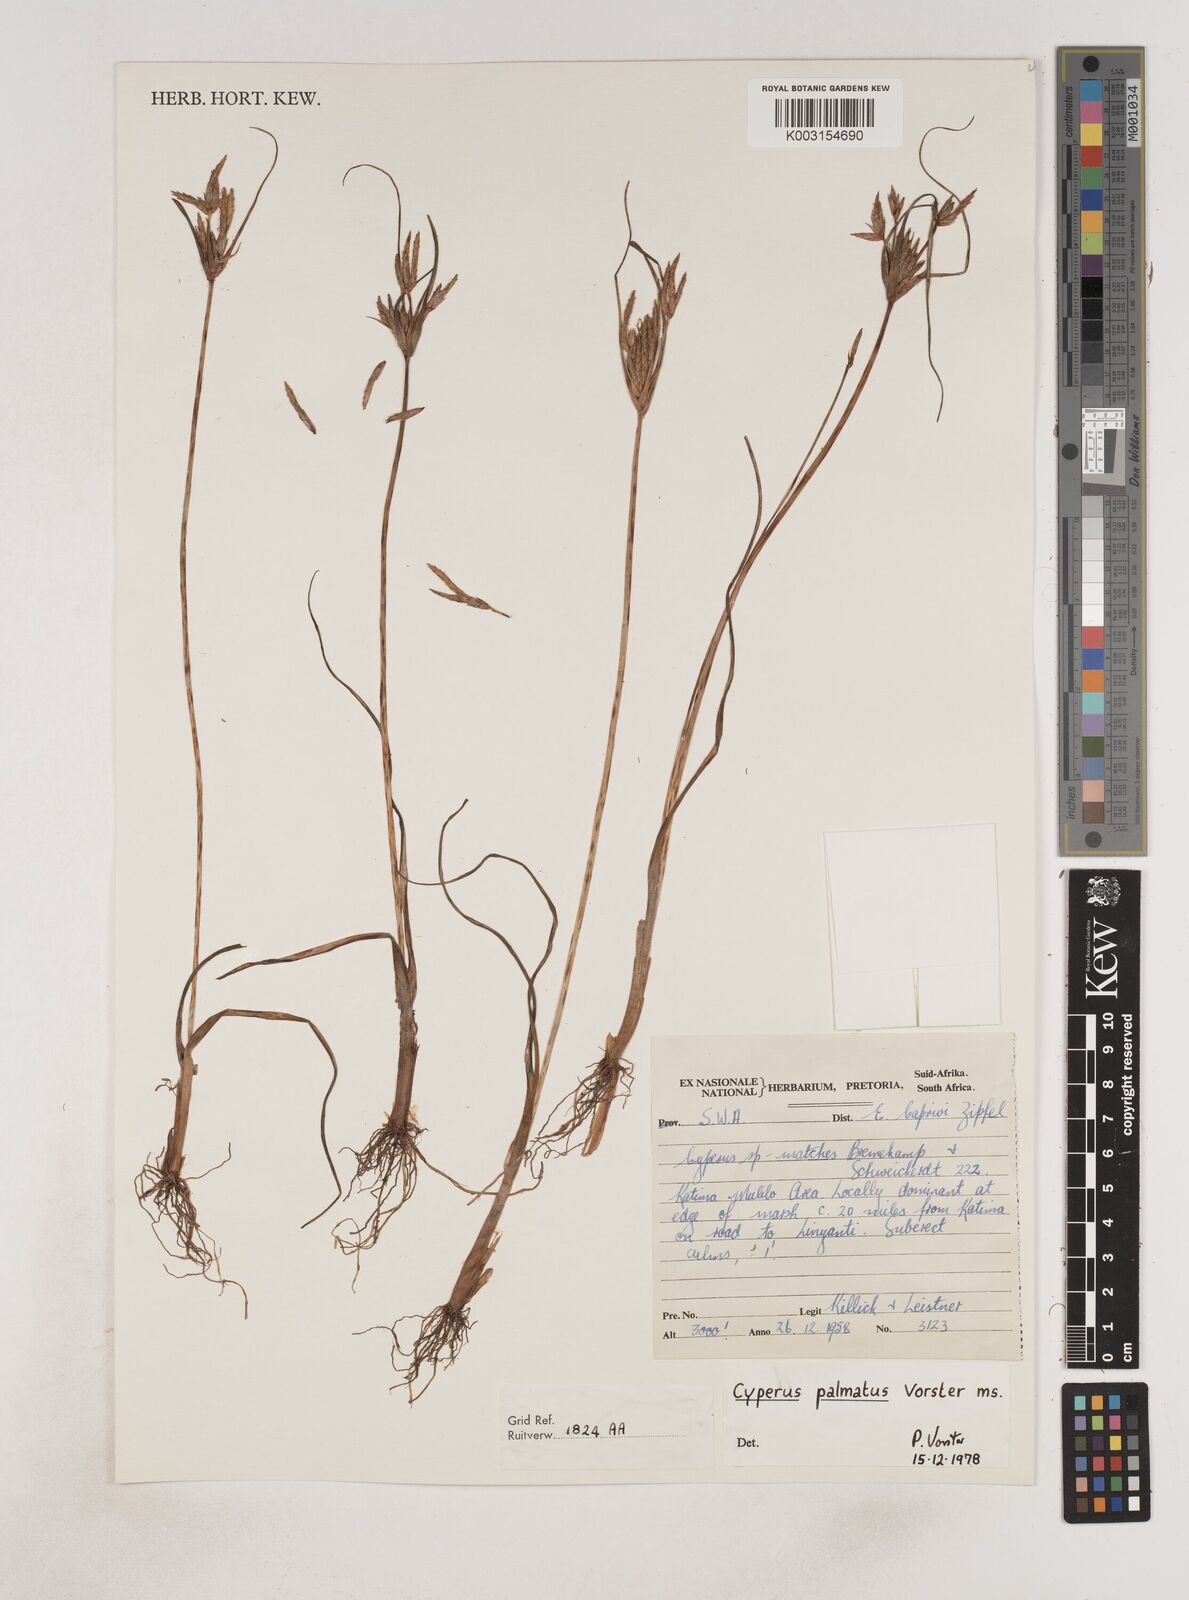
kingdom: Plantae
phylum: Tracheophyta
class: Liliopsida
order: Poales
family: Cyperaceae
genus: Cyperus
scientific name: Cyperus
